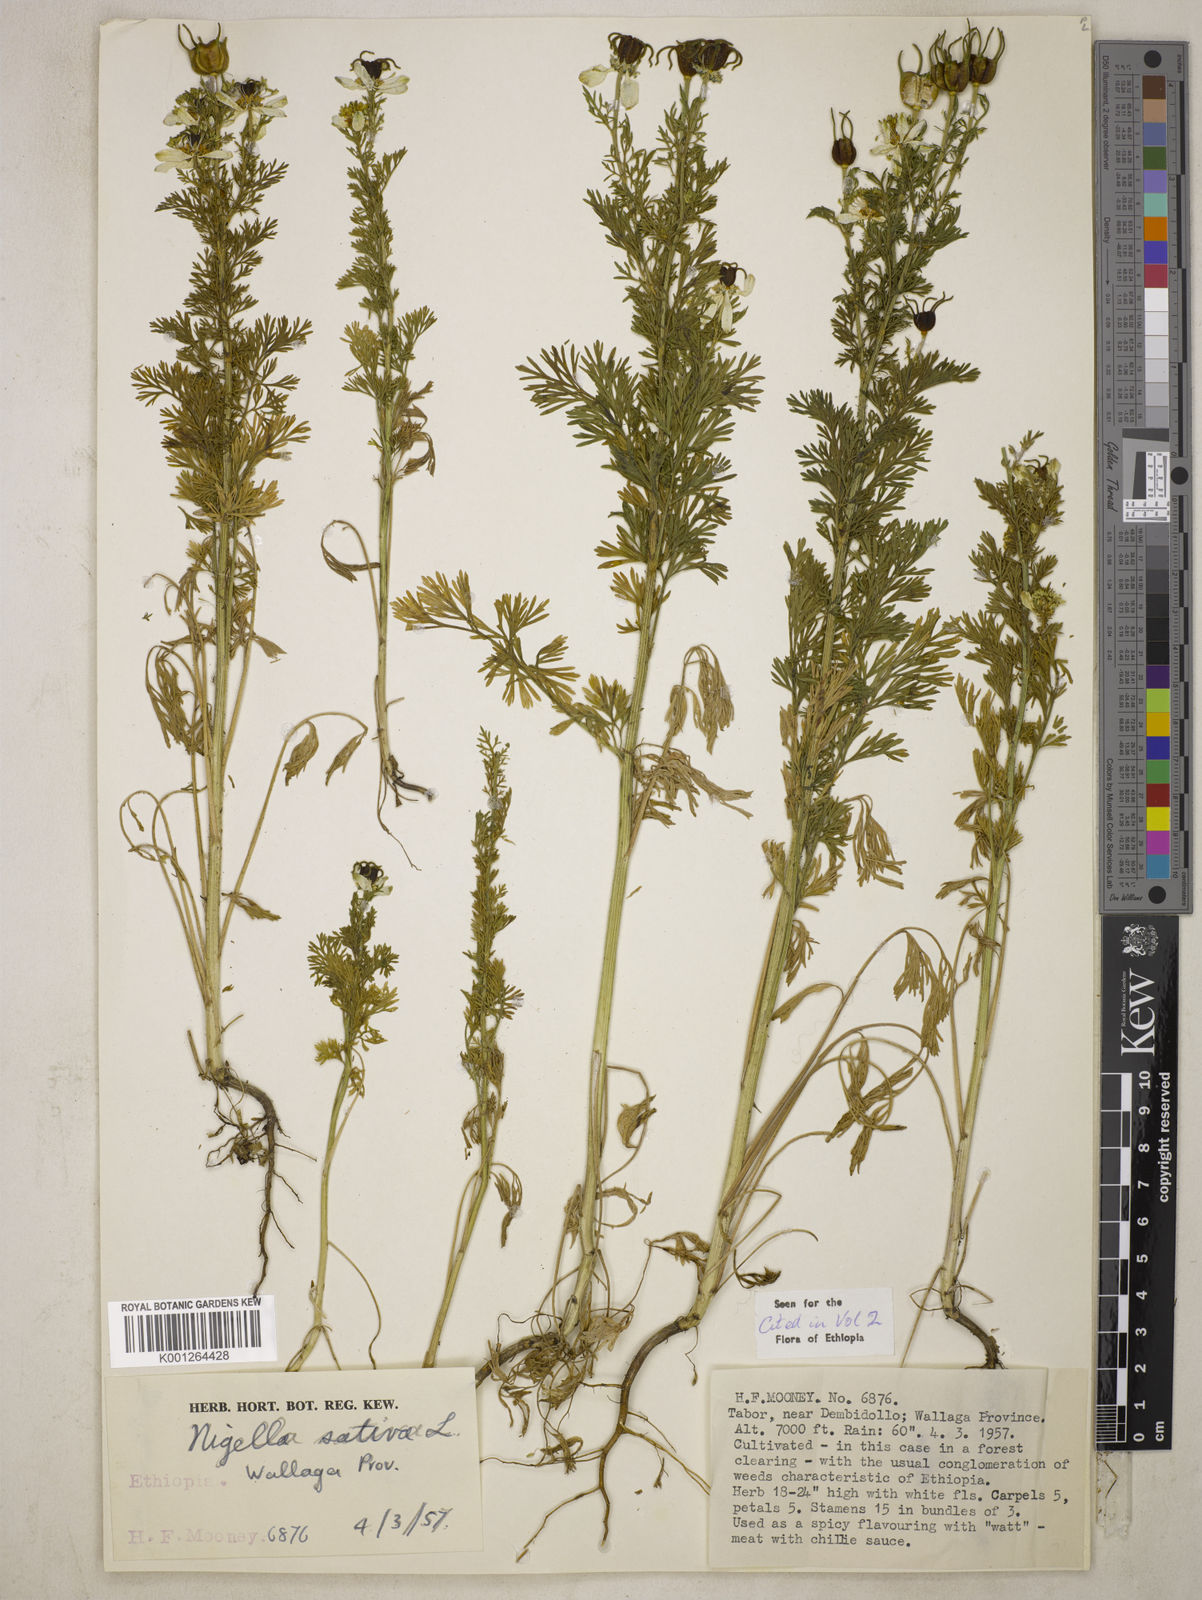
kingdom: Plantae
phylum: Tracheophyta
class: Magnoliopsida
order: Ranunculales
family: Ranunculaceae
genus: Nigella
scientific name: Nigella sativa
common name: Black-cumin
